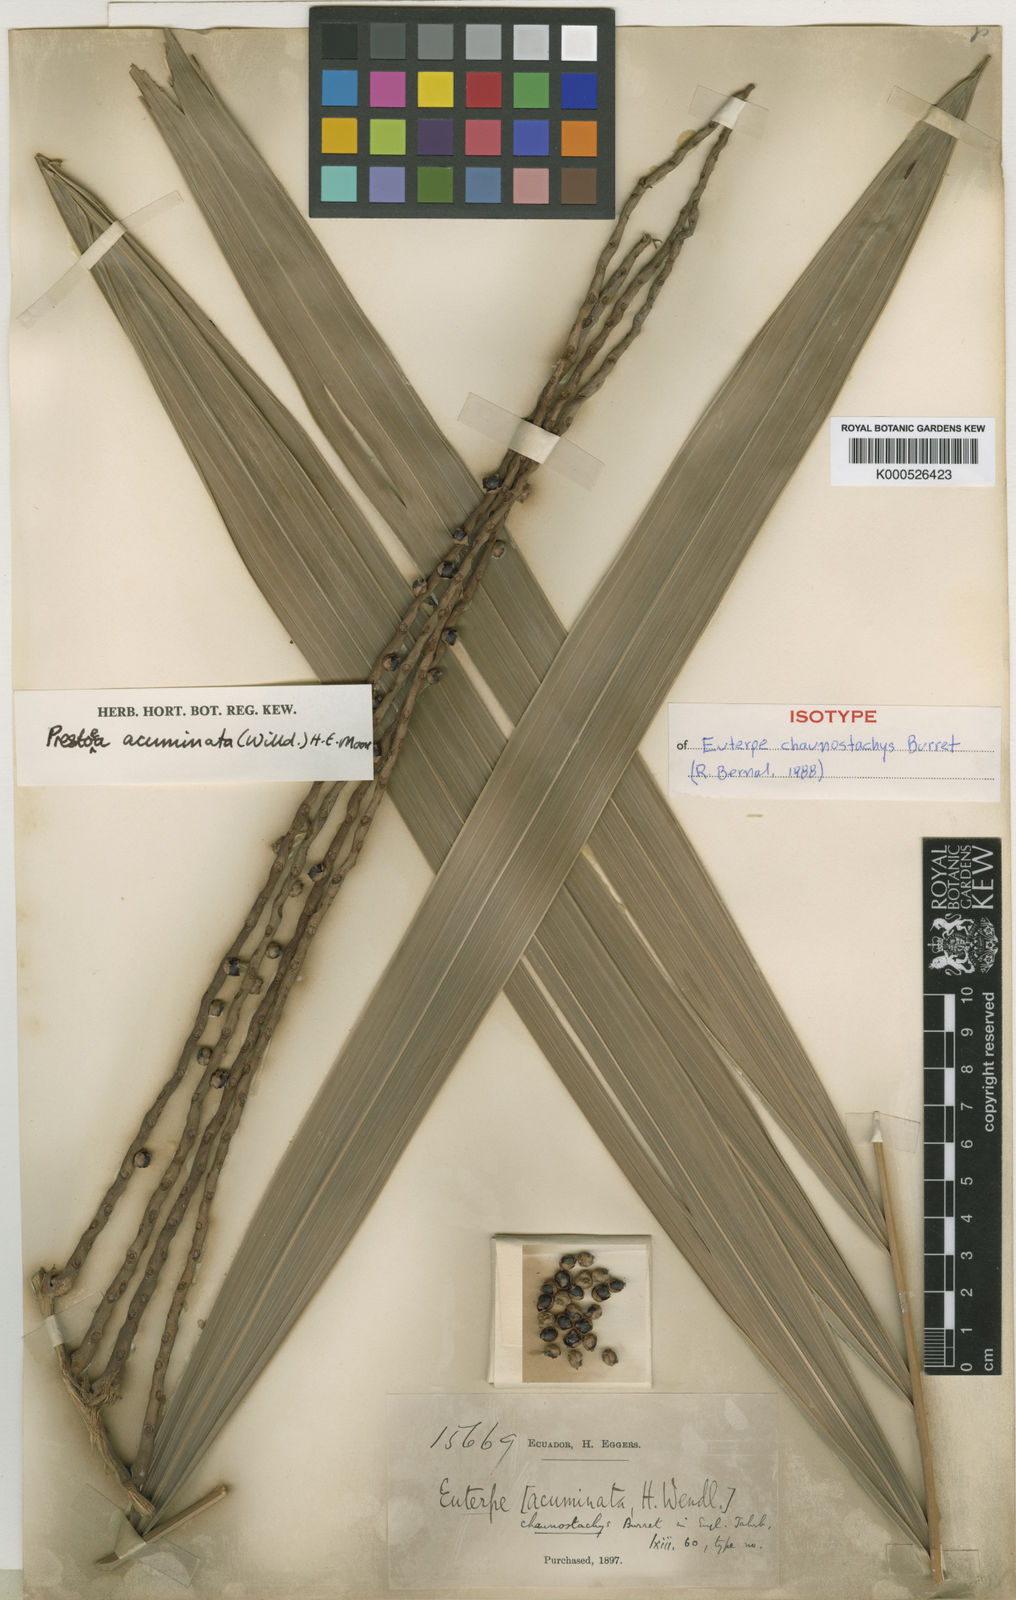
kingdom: Plantae
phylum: Tracheophyta
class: Liliopsida
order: Arecales
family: Arecaceae
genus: Prestoea
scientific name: Prestoea acuminata
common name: Sierran palm
